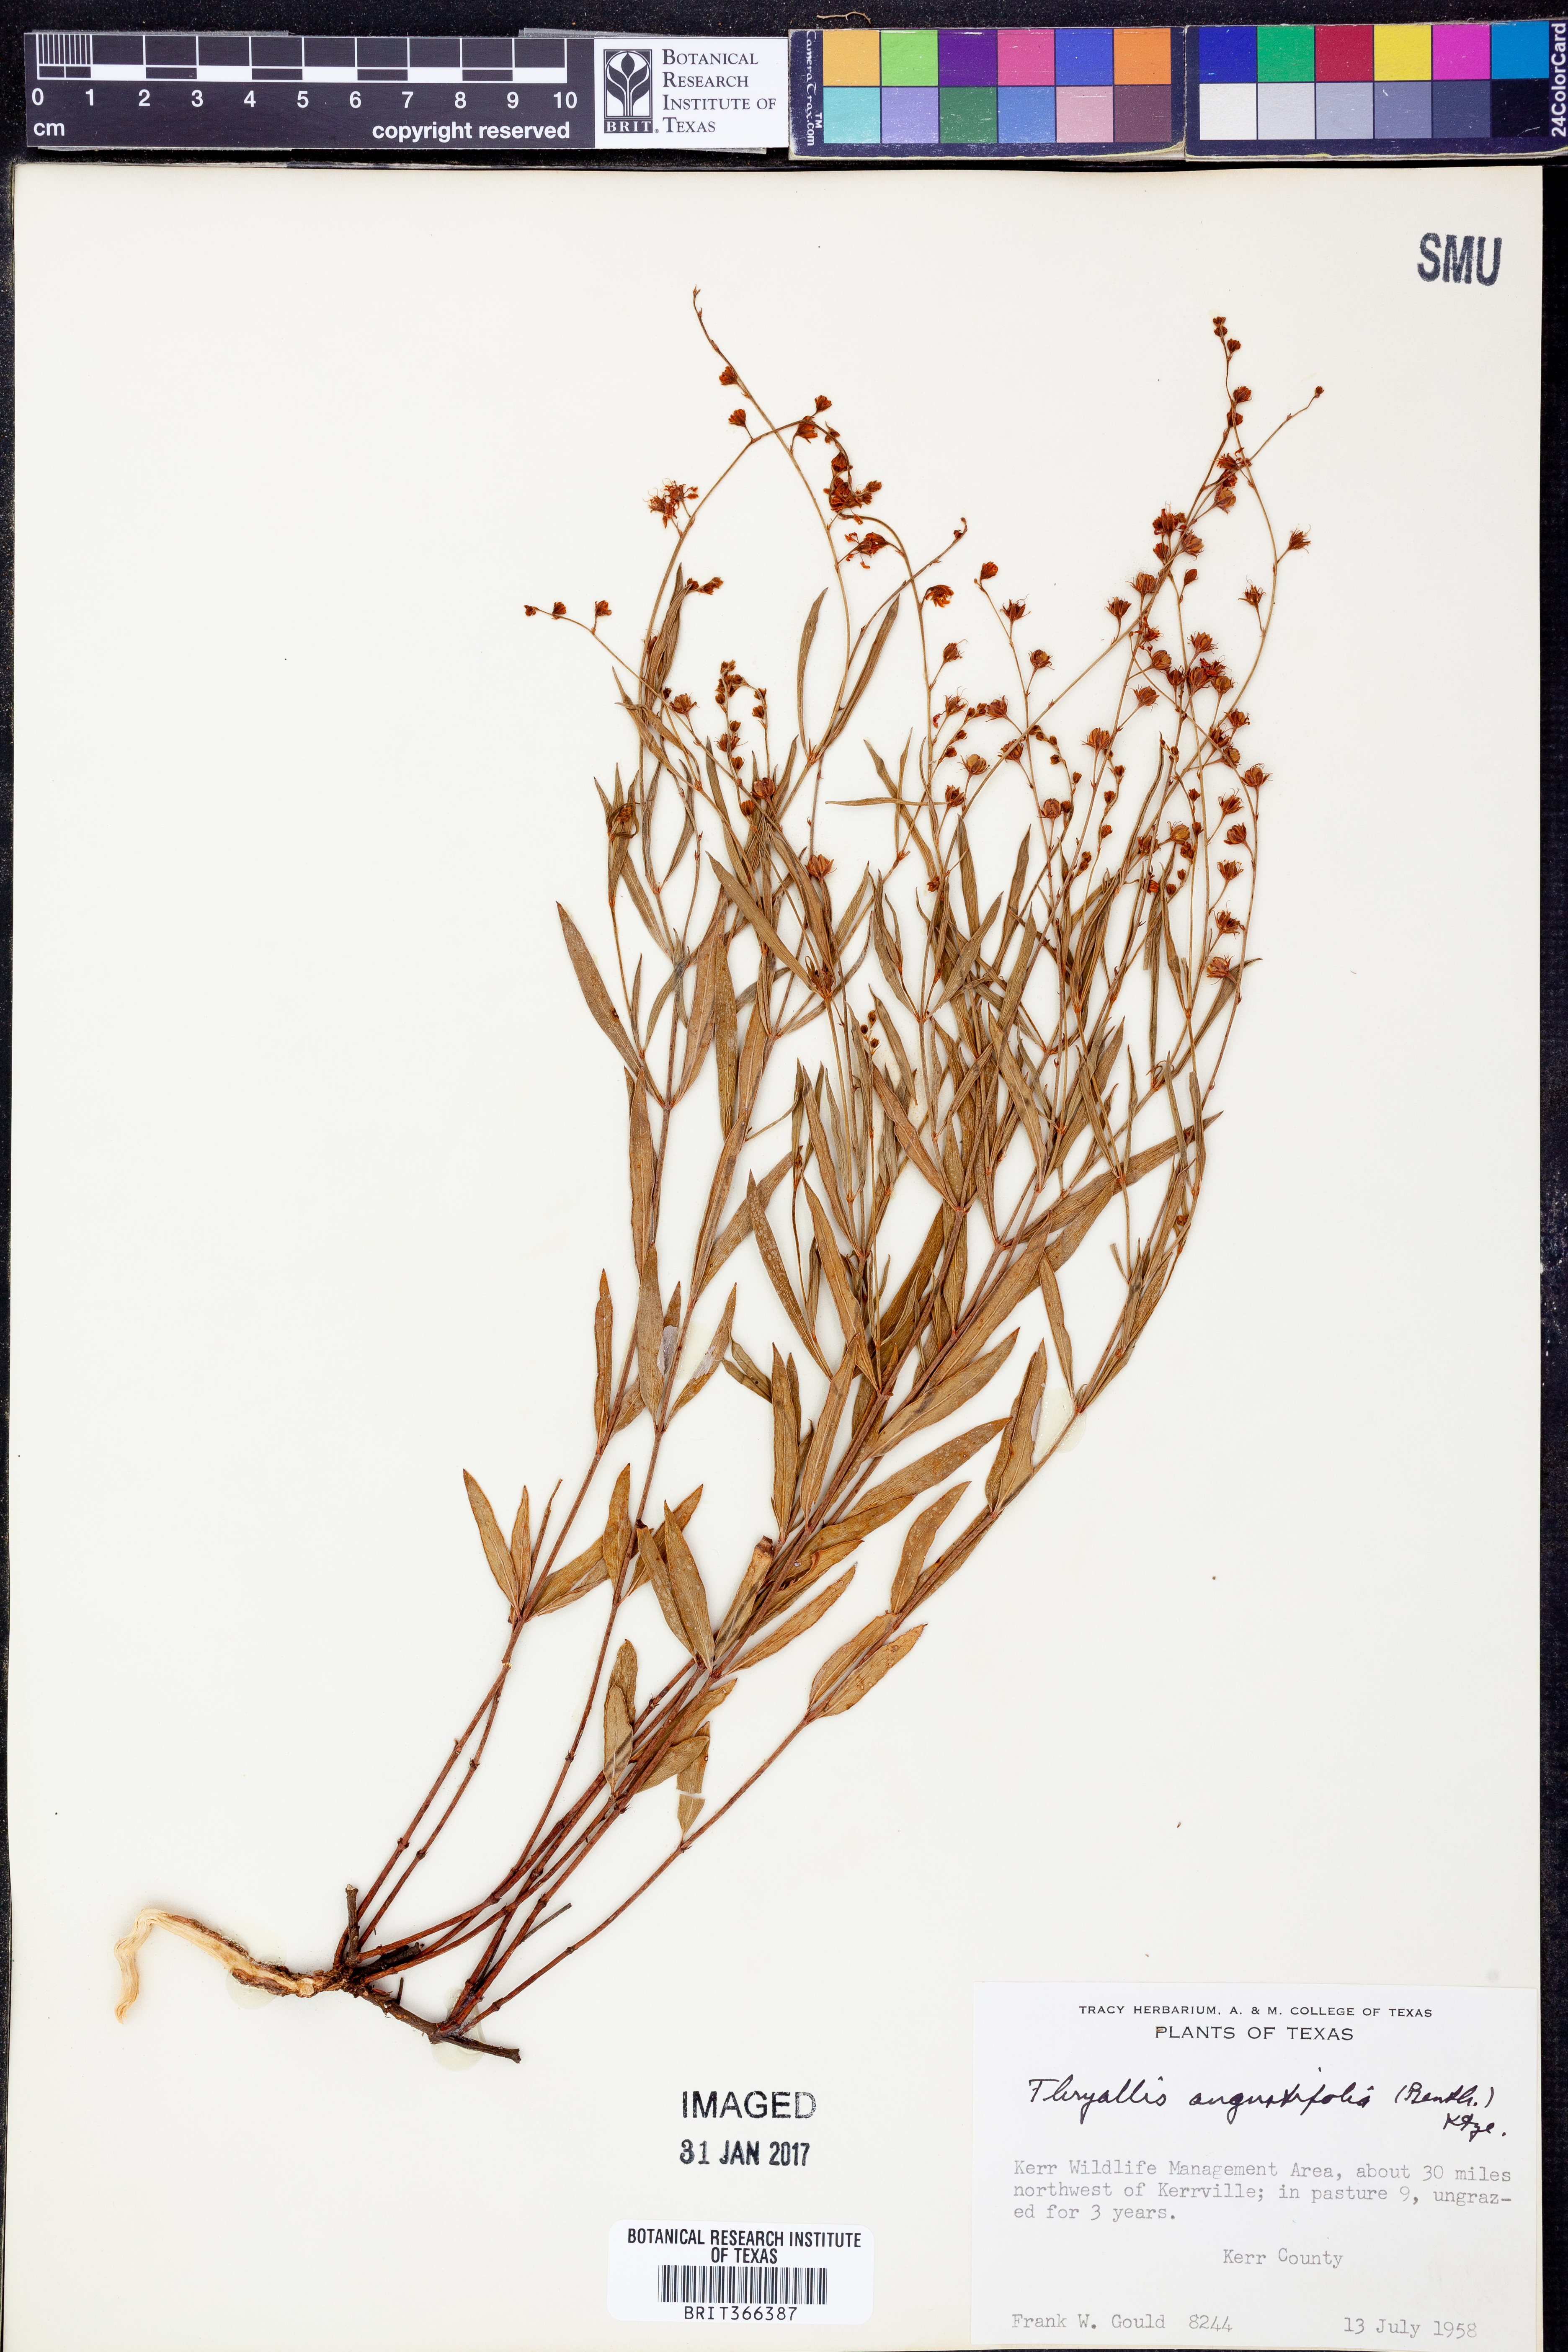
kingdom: Plantae
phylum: Tracheophyta
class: Magnoliopsida
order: Malpighiales
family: Malpighiaceae
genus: Galphimia
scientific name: Galphimia angustifolia
